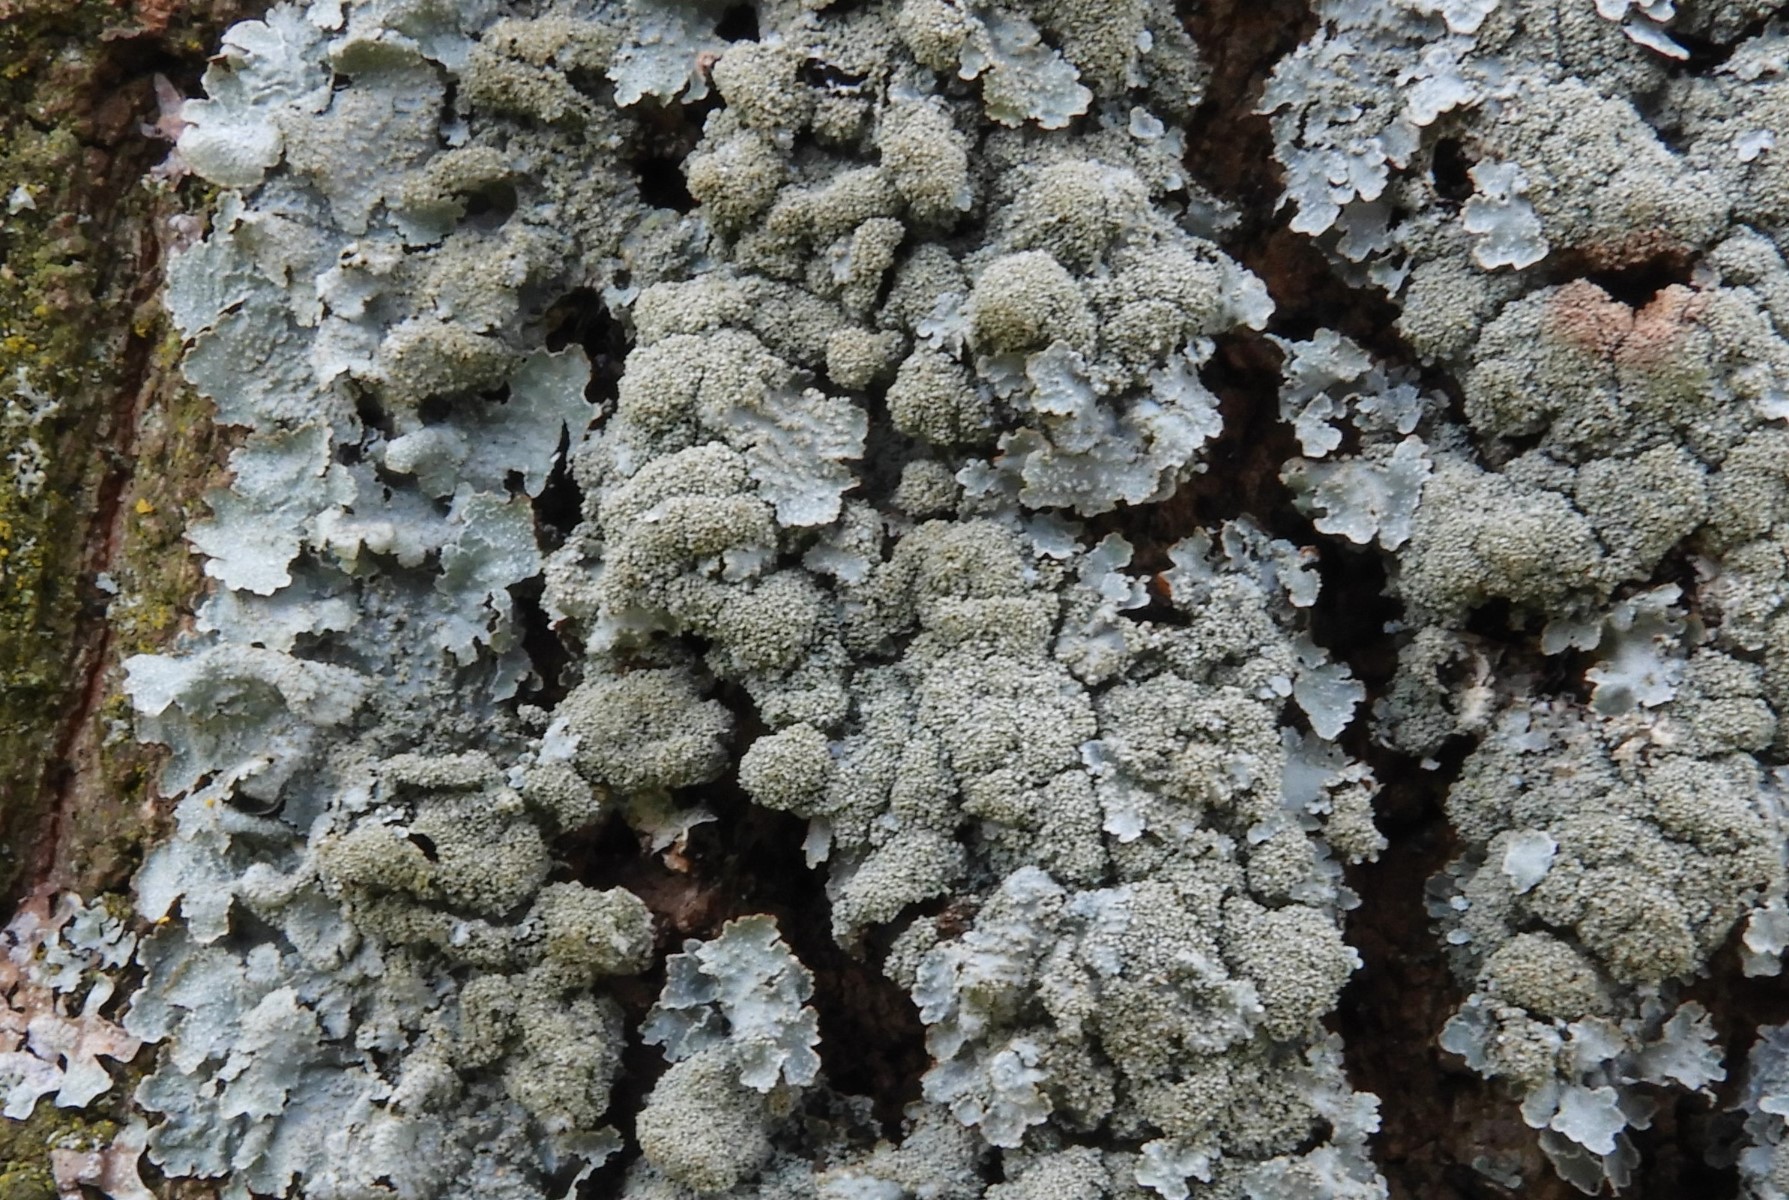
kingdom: Fungi
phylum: Ascomycota
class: Lecanoromycetes
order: Lecanorales
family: Parmeliaceae
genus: Parmelia
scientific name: Parmelia saxatilis
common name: farve-skållav
